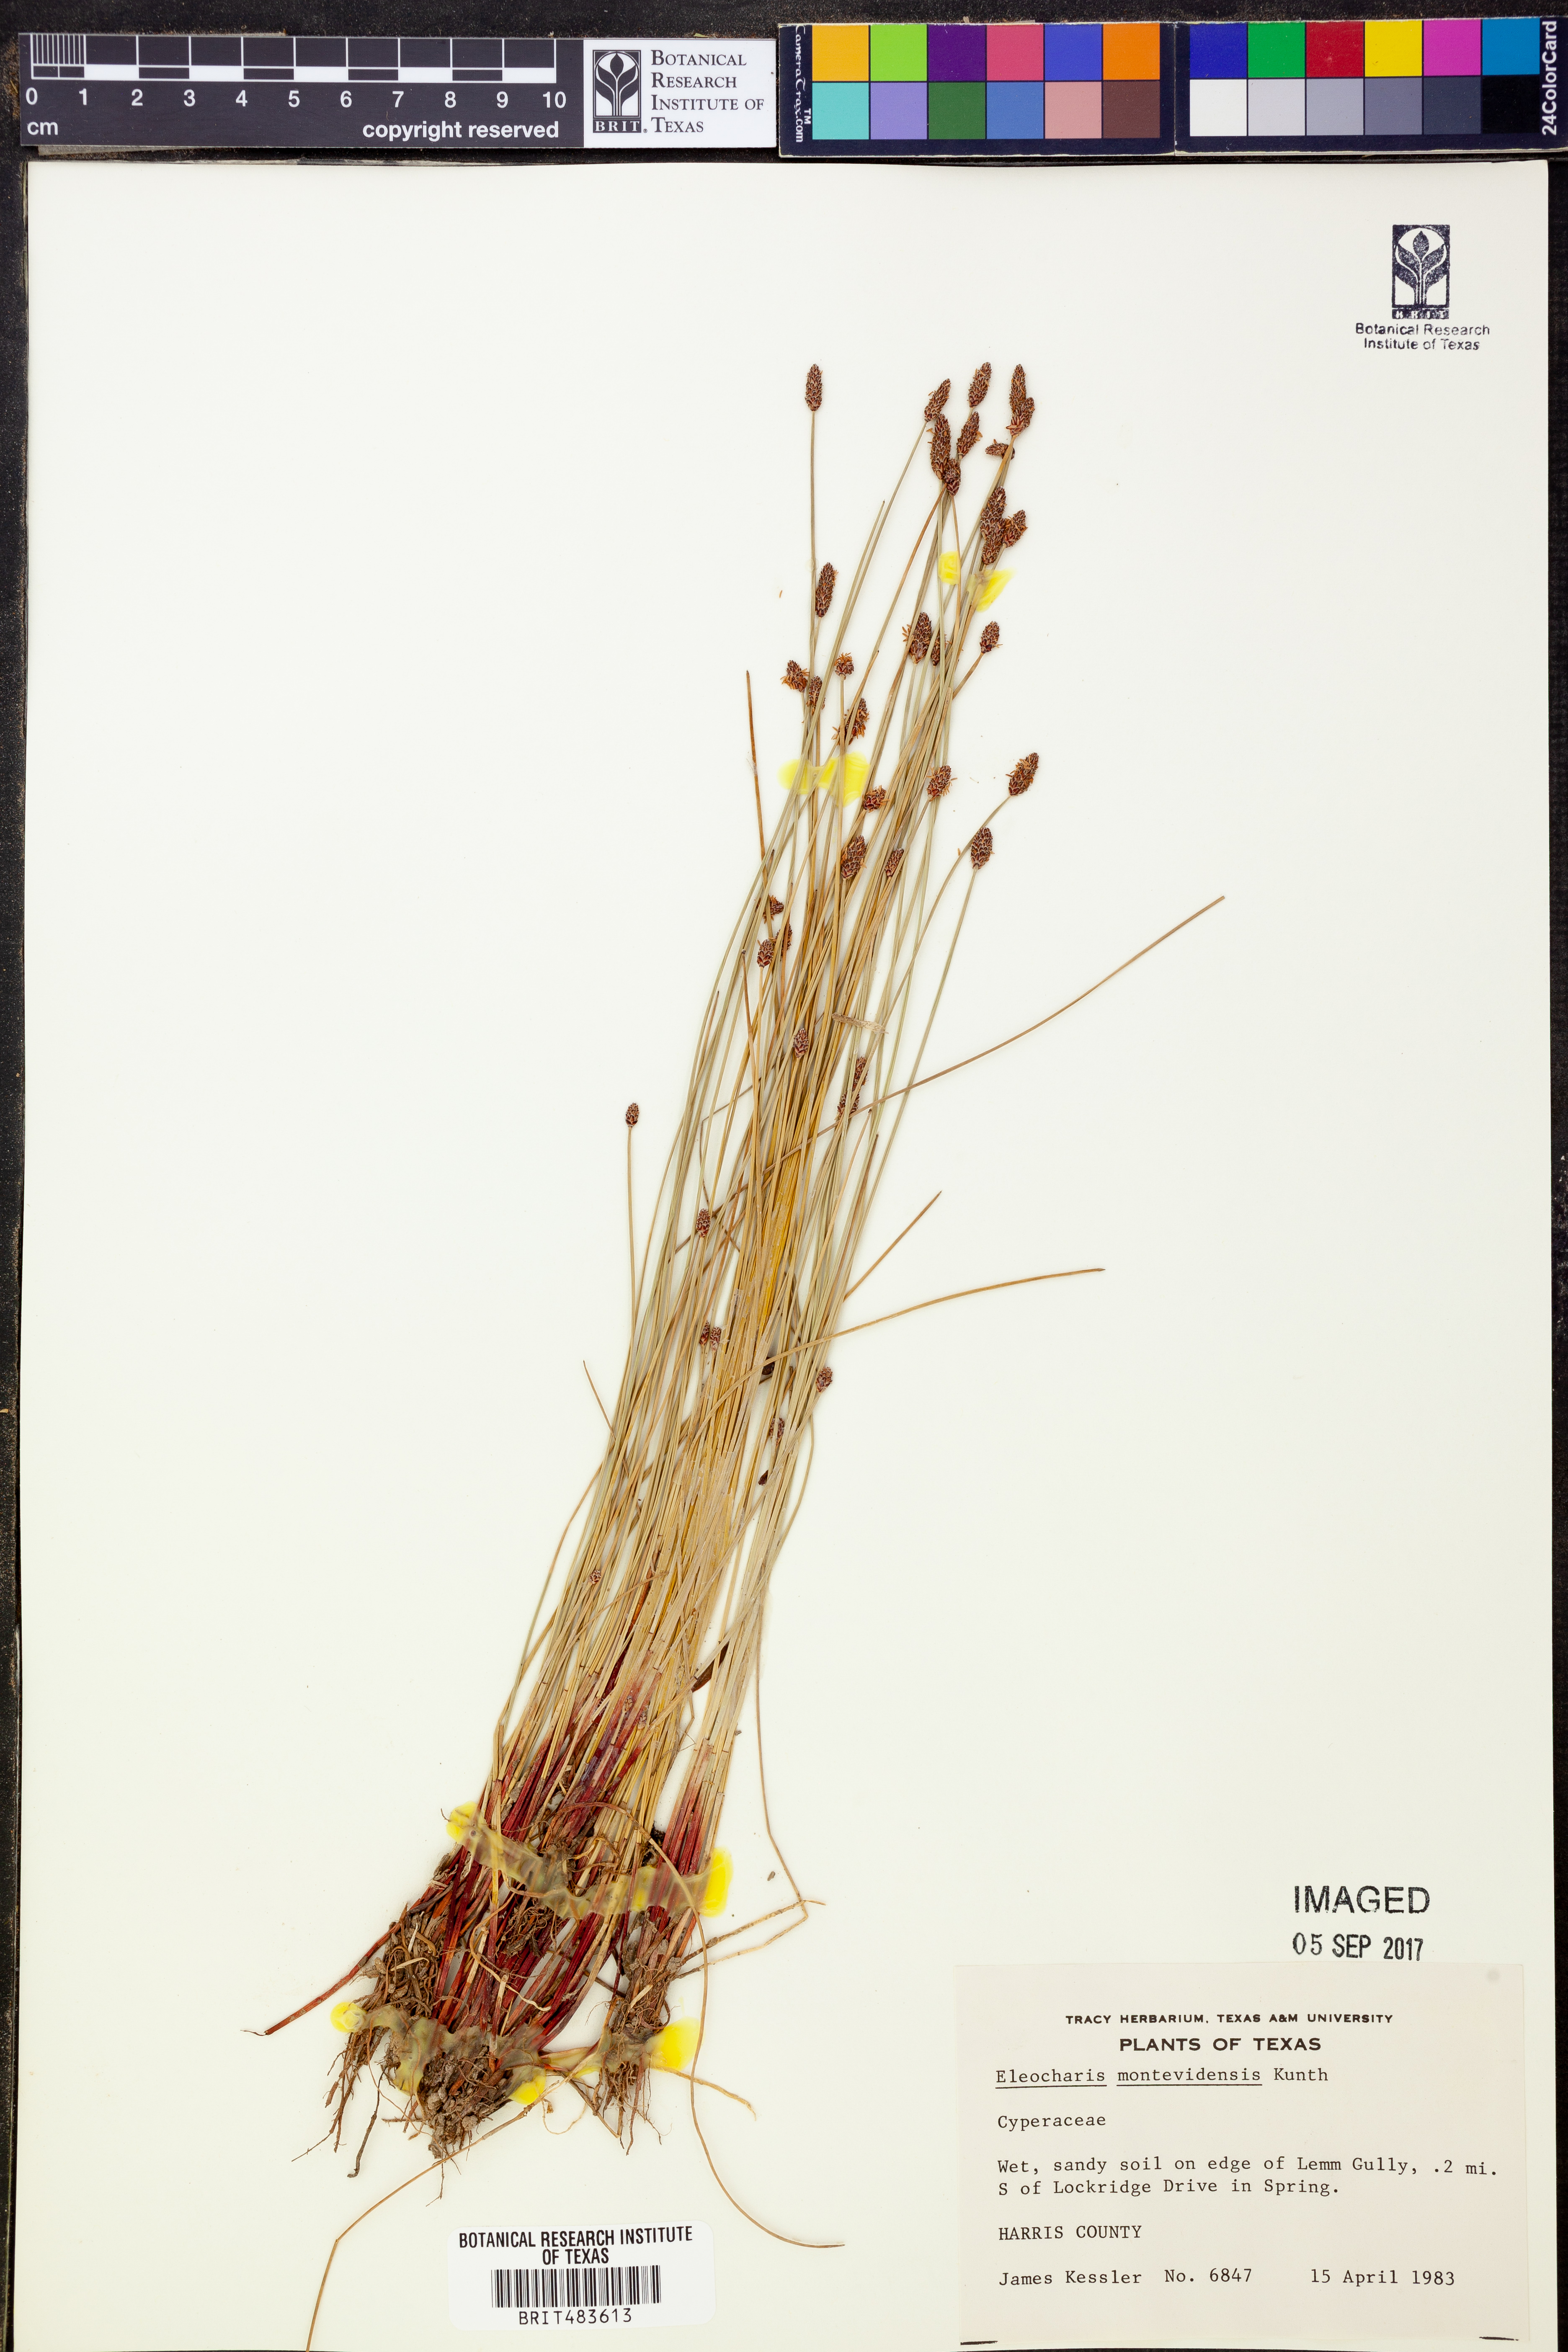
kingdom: Plantae
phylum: Tracheophyta
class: Liliopsida
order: Poales
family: Cyperaceae
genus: Eleocharis
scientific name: Eleocharis montevidensis
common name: Sand spike-rush
